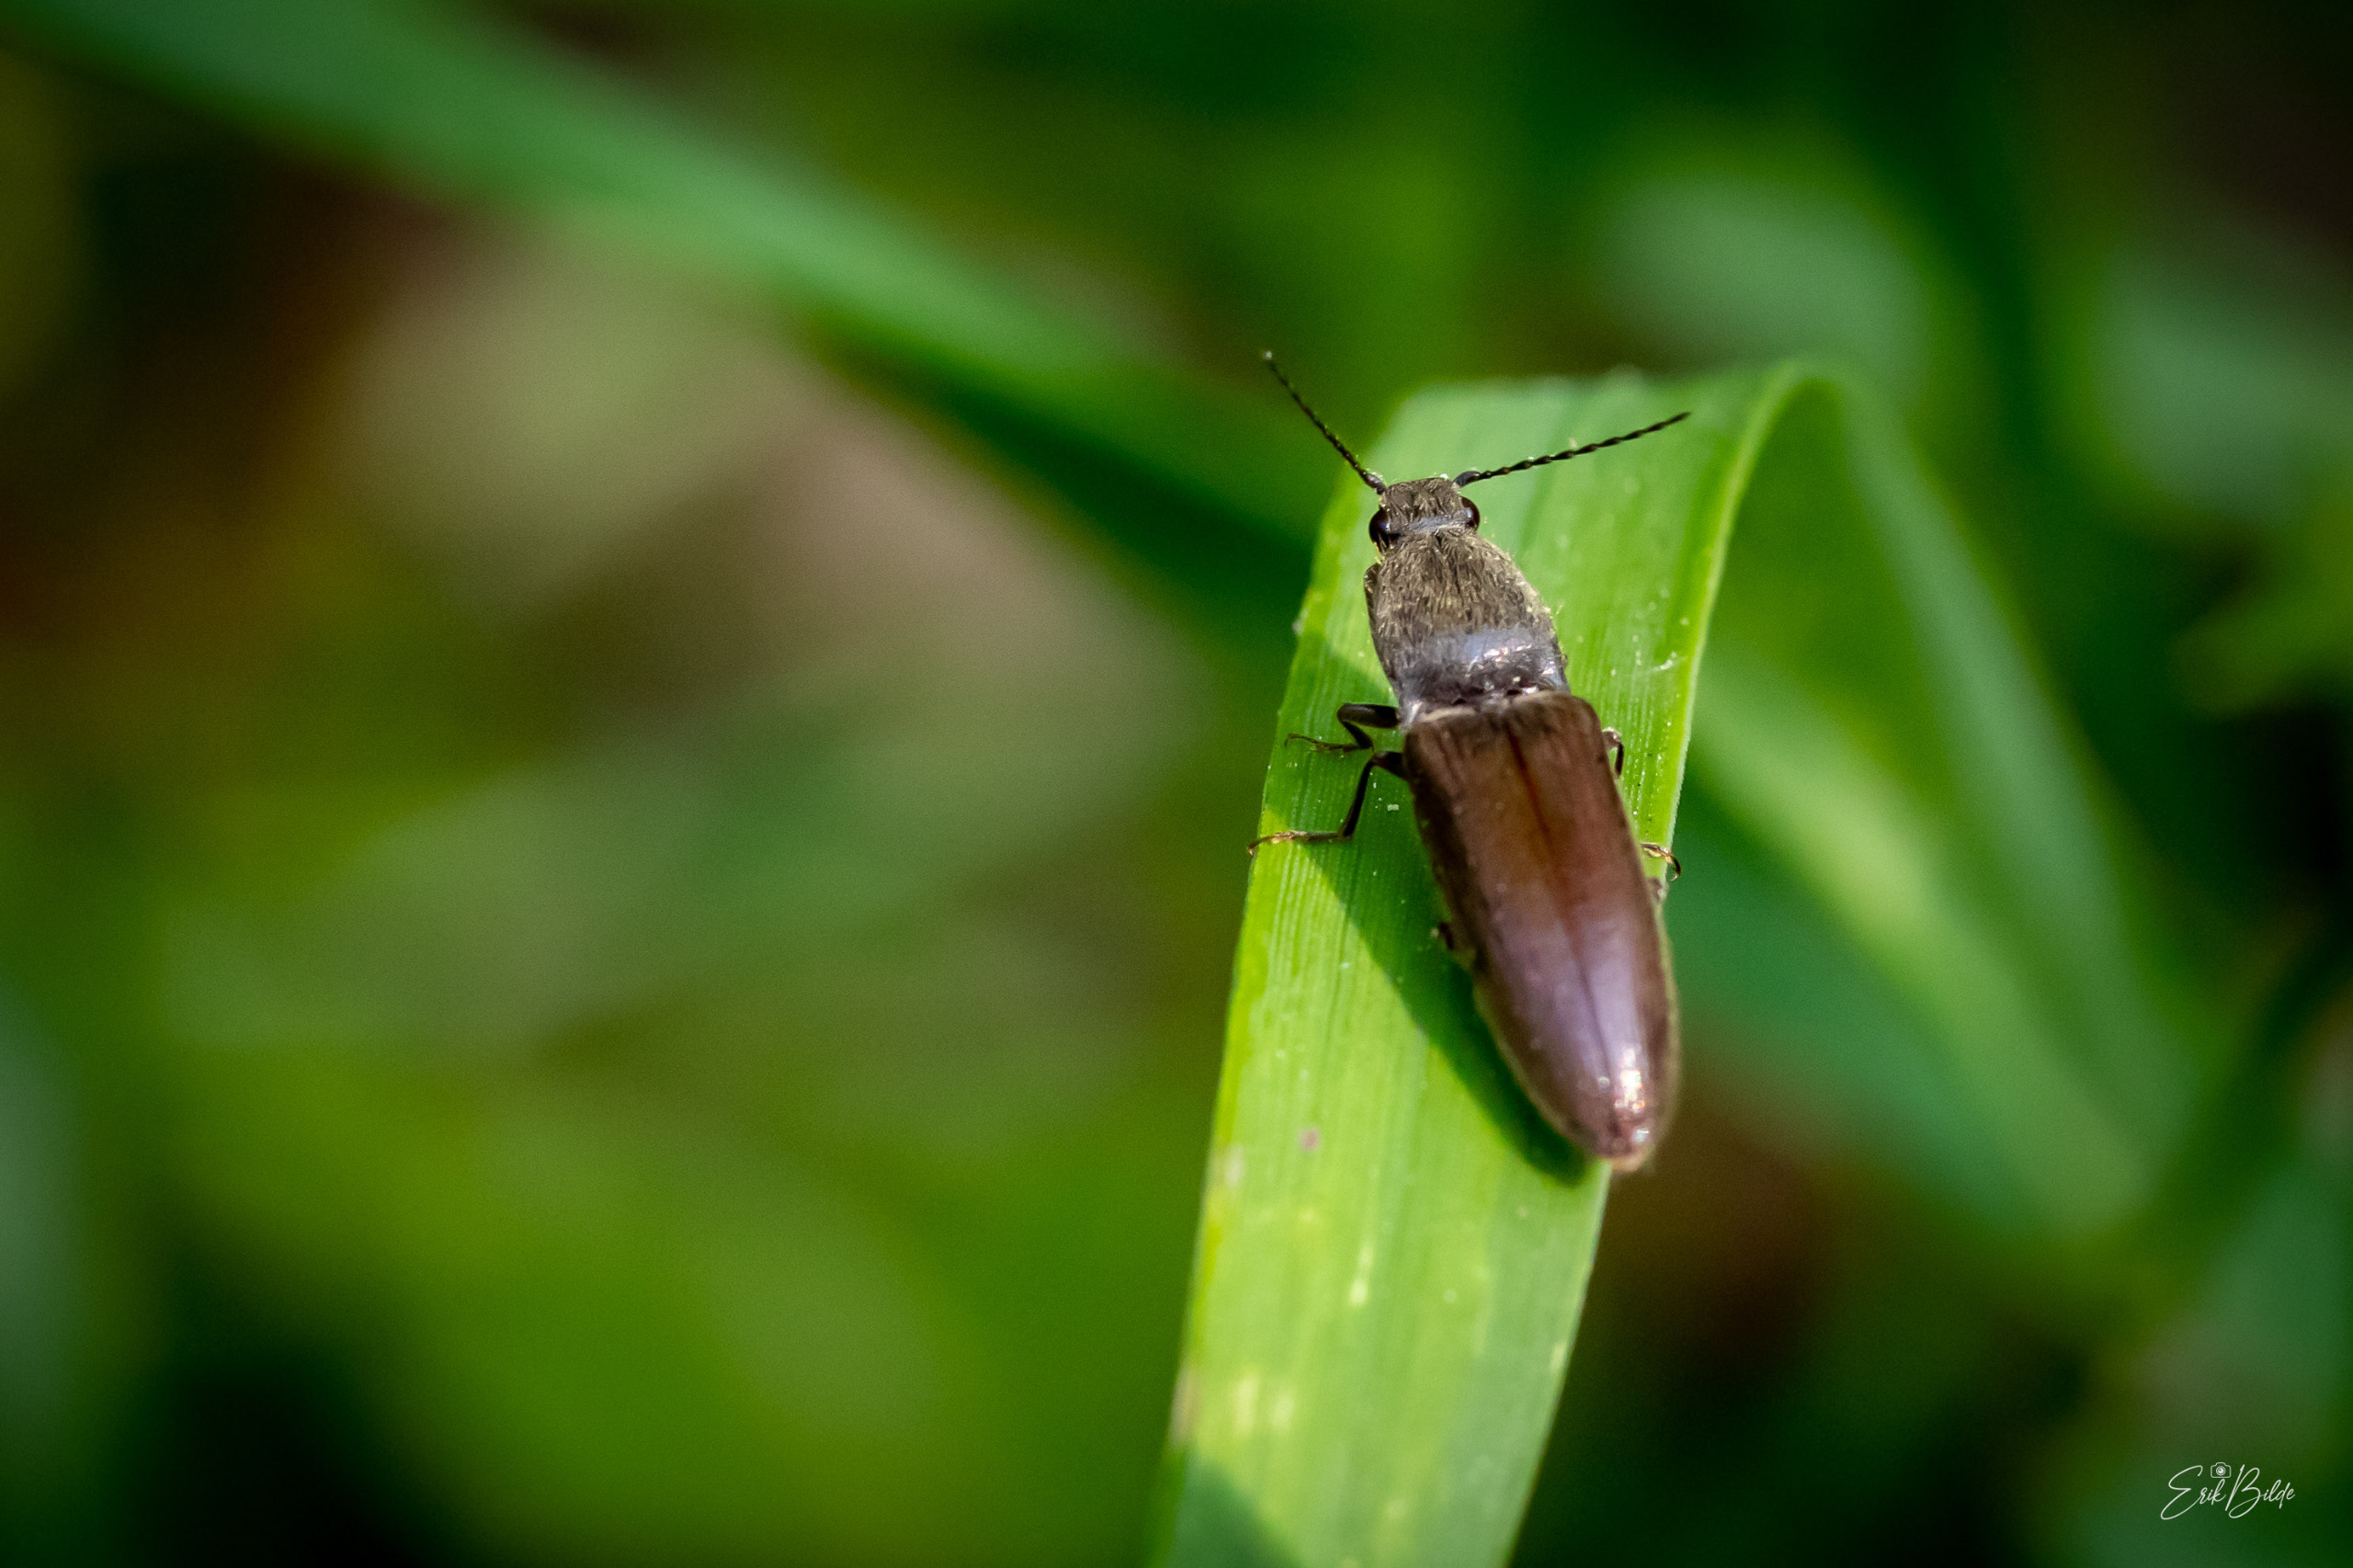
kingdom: Animalia
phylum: Arthropoda
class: Insecta
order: Coleoptera
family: Elateridae
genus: Athous
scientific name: Athous haemorrhoidalis
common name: Rødhalet busksmælder
